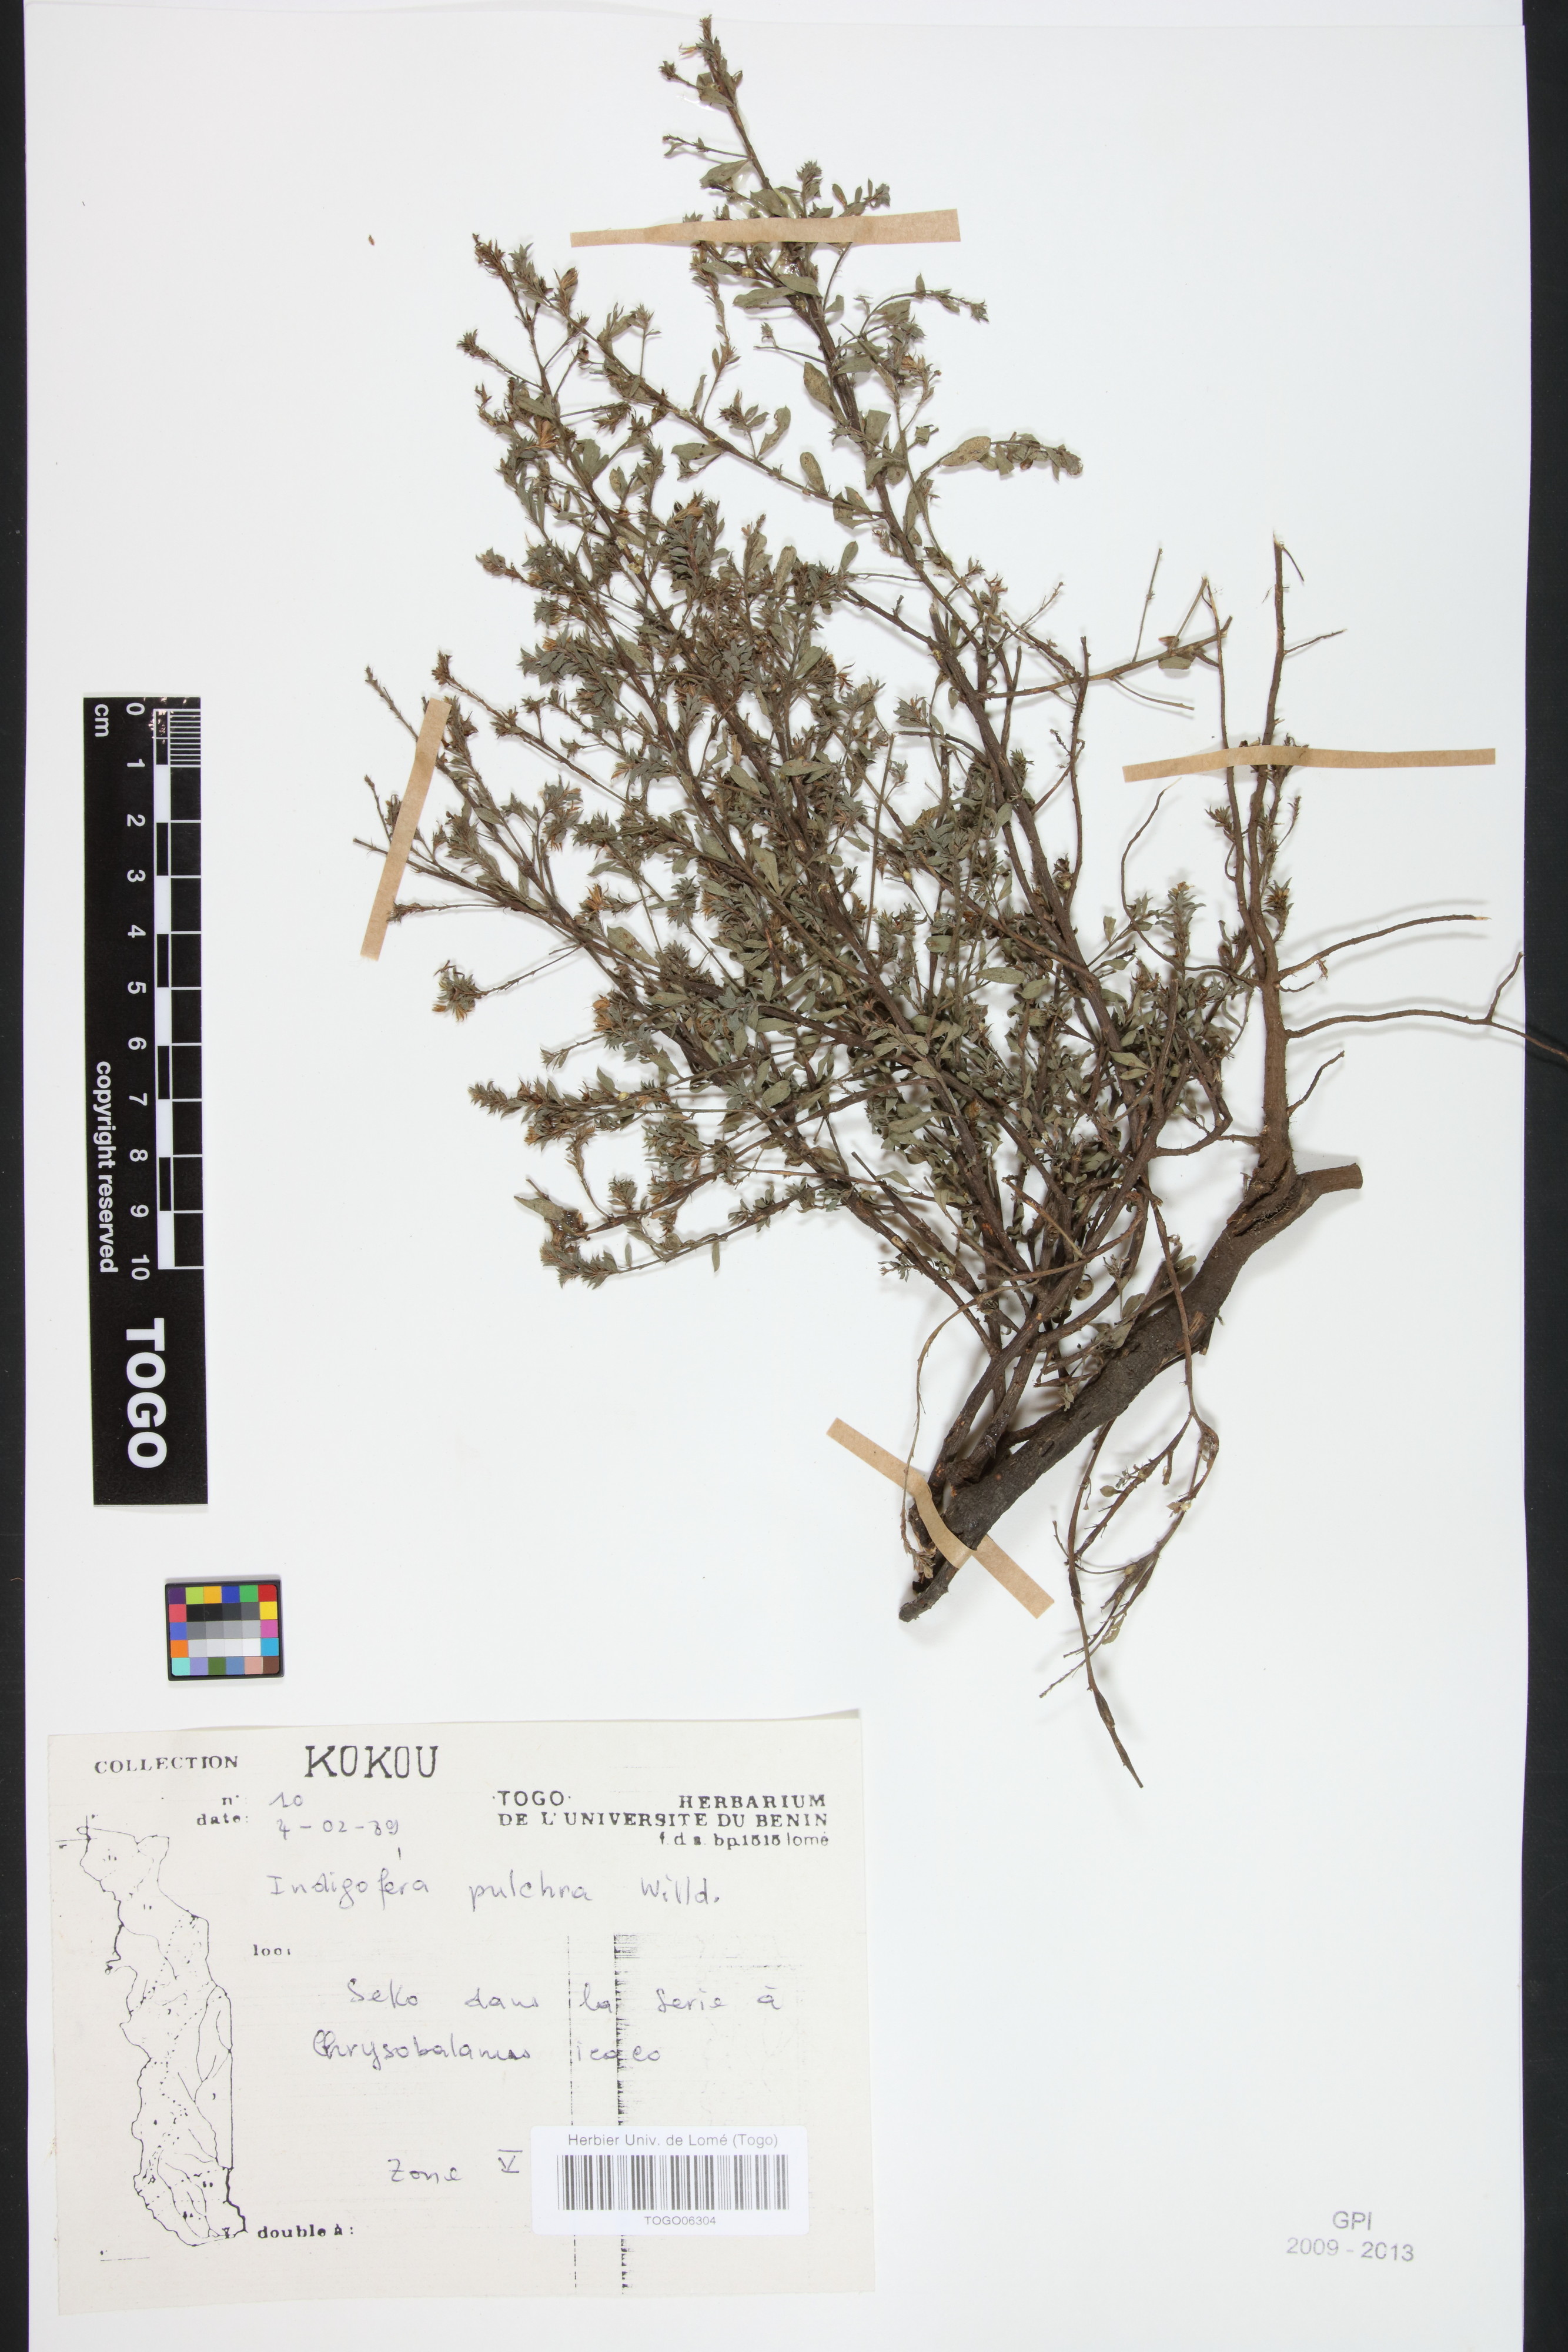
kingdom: Plantae
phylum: Tracheophyta
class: Magnoliopsida
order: Fabales
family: Fabaceae
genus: Indigofera
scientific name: Indigofera pulchra
